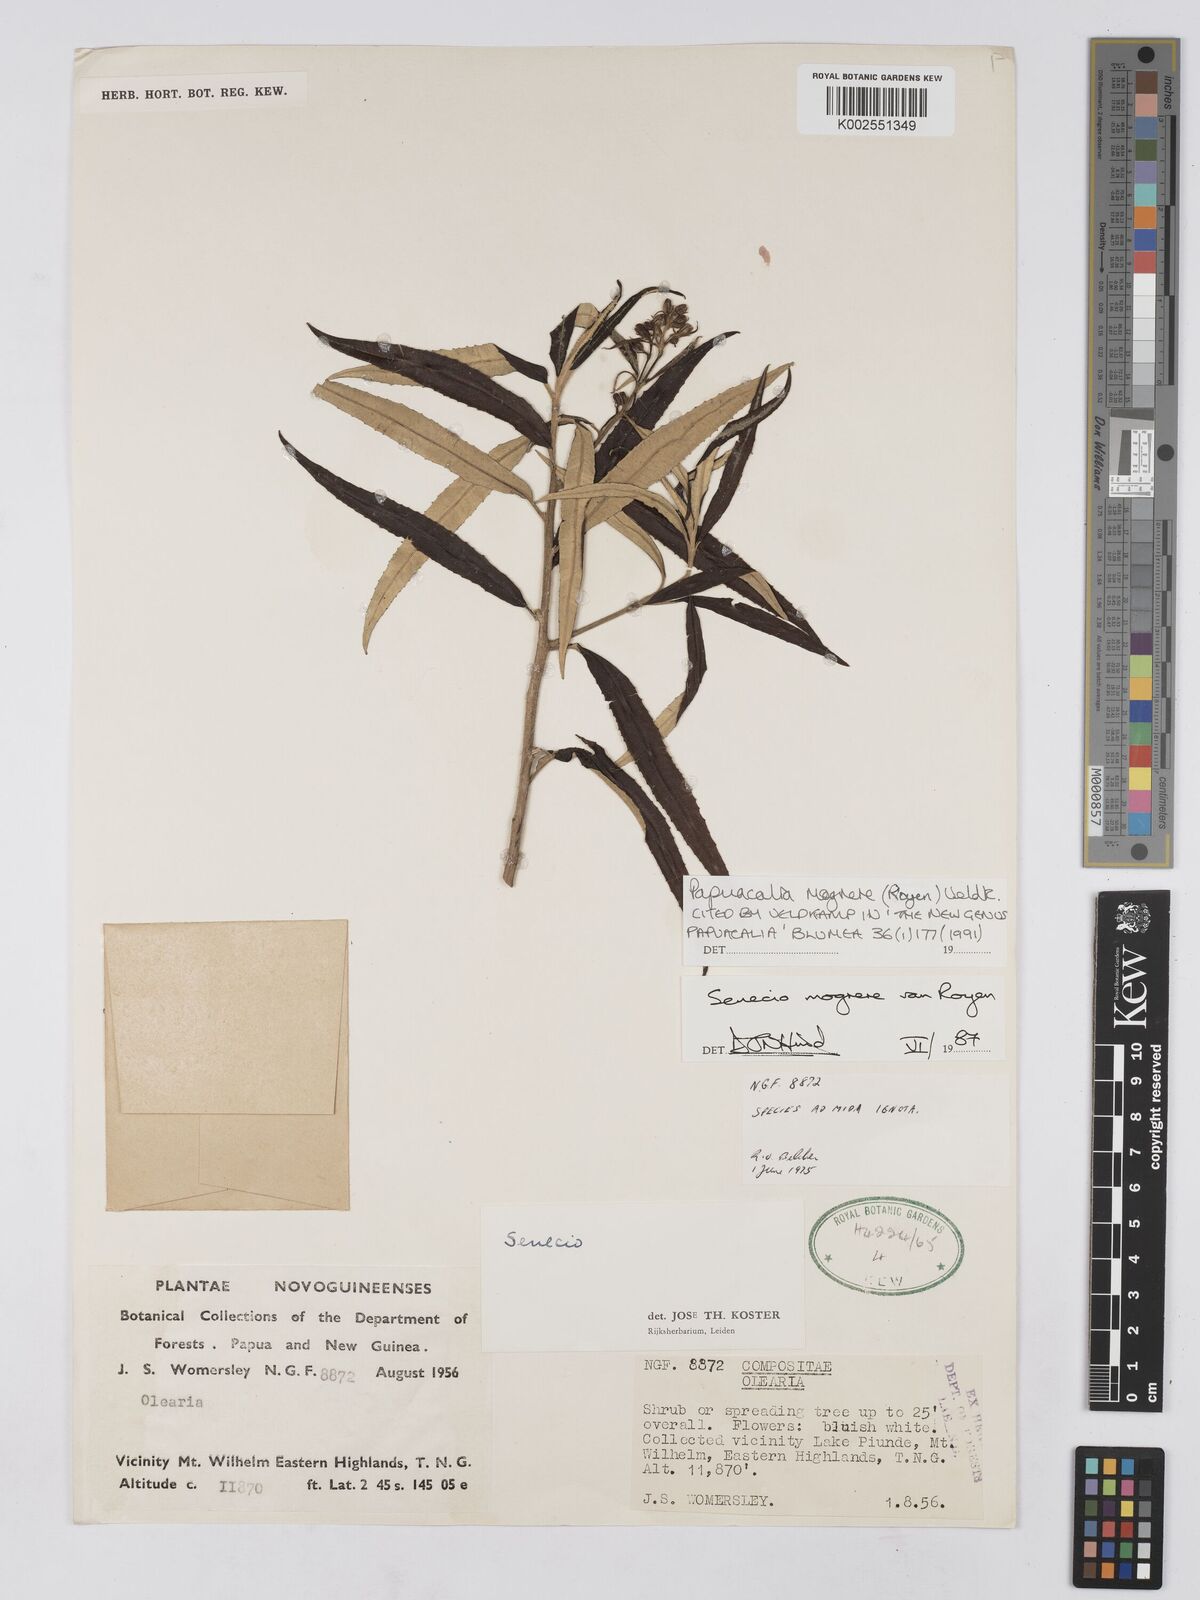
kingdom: Plantae
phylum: Tracheophyta
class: Magnoliopsida
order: Asterales
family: Asteraceae
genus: Papuacalia
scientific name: Papuacalia mogrere
